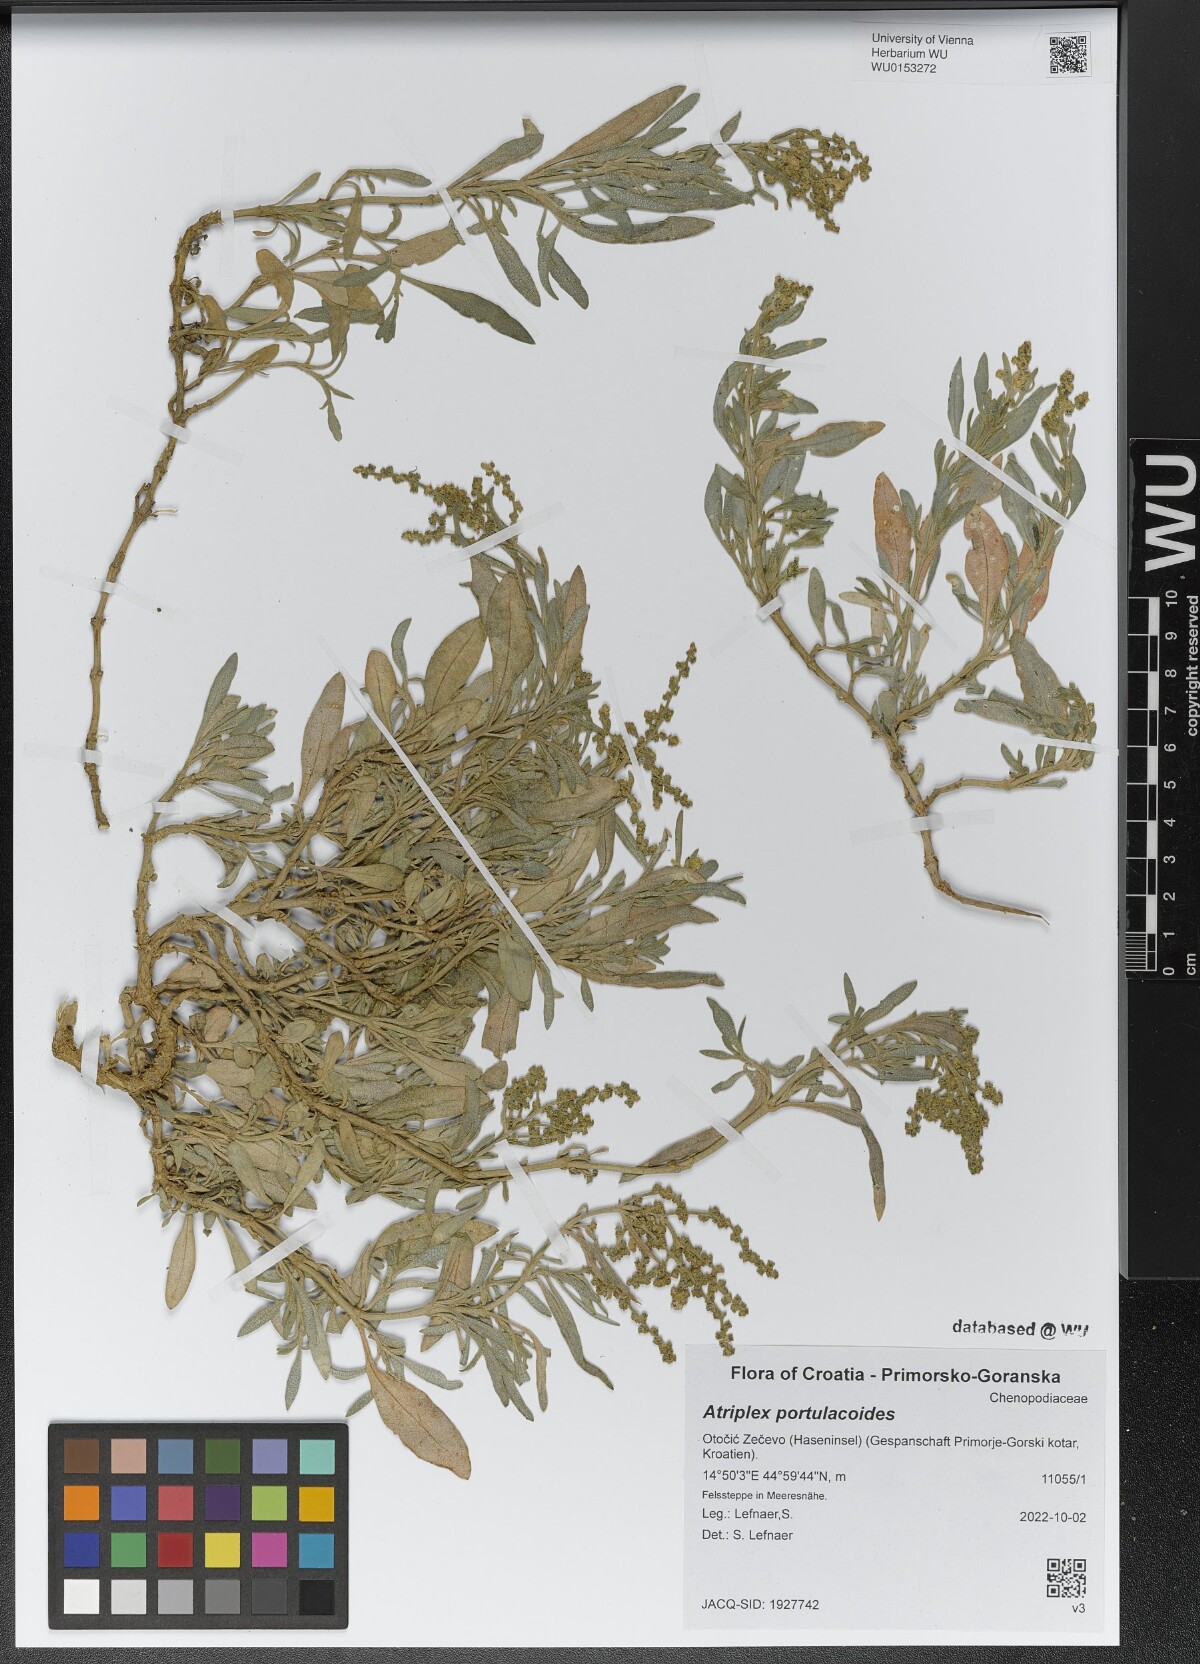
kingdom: Plantae
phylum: Tracheophyta
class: Magnoliopsida
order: Caryophyllales
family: Amaranthaceae
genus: Halimione
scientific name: Halimione portulacoides
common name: Sea-purslane
